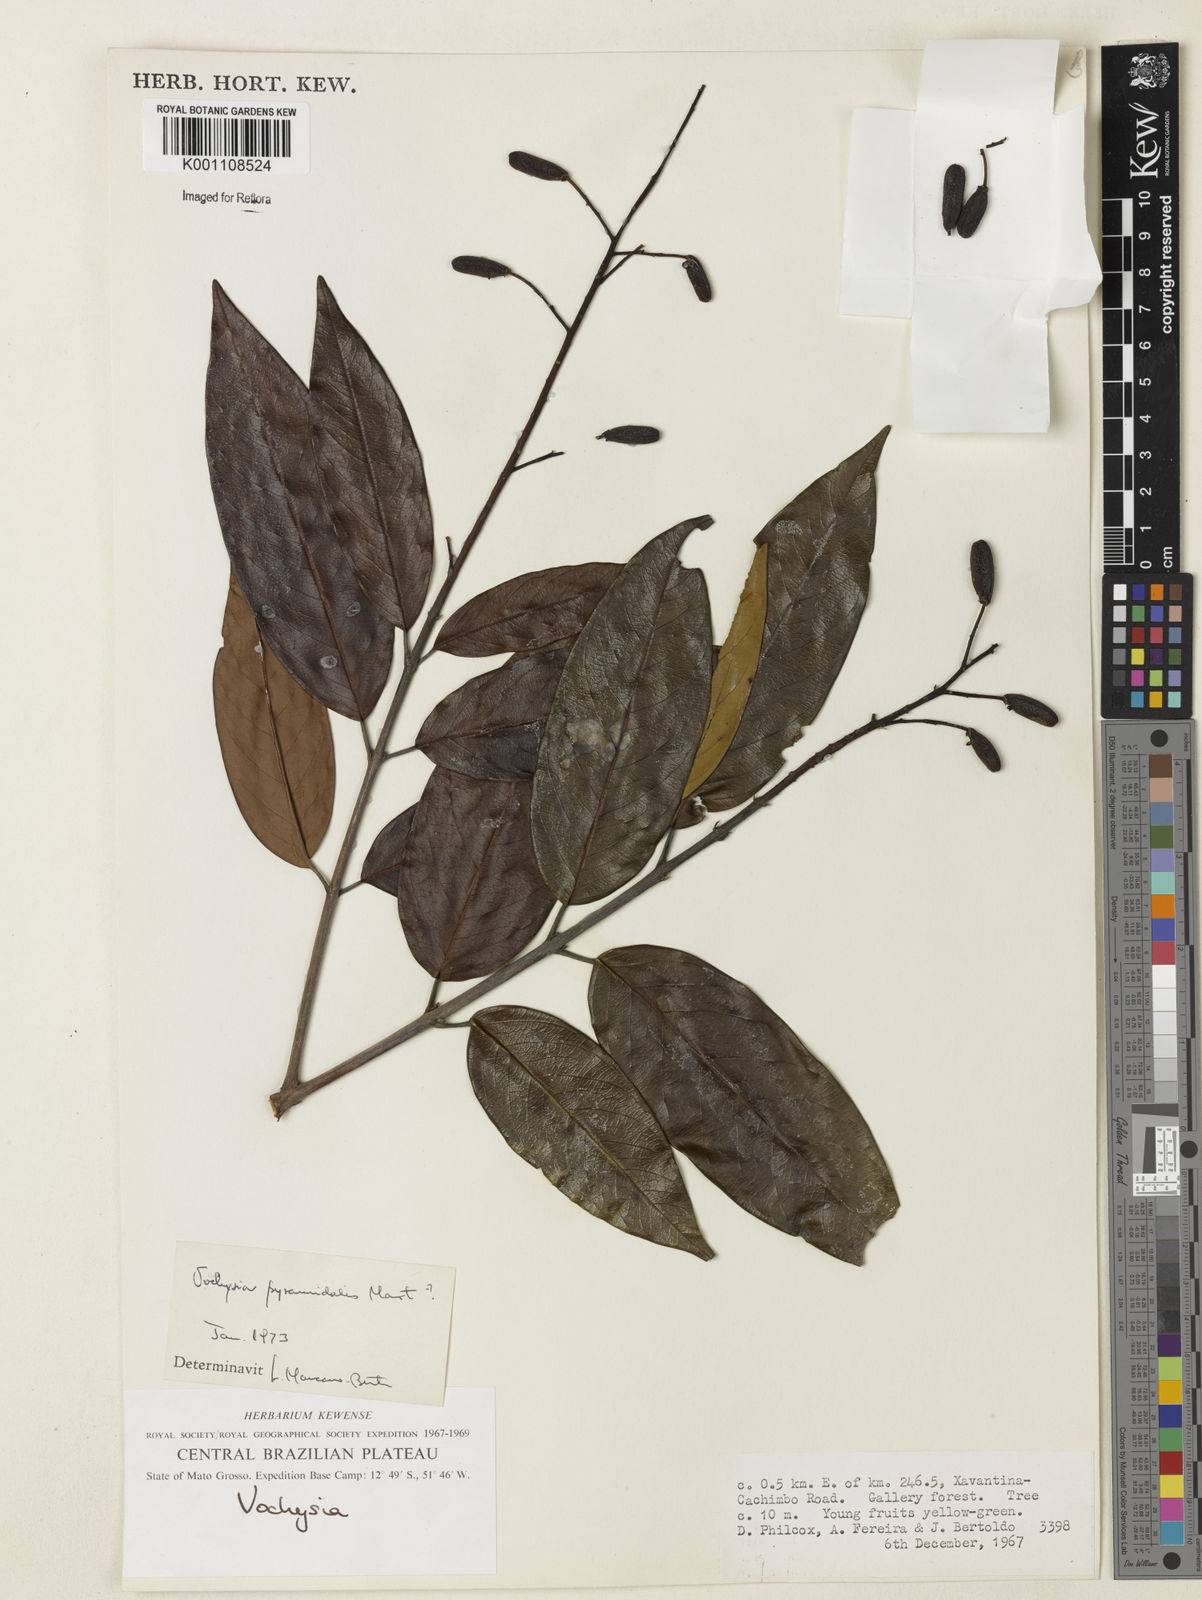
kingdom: Plantae
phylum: Tracheophyta
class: Magnoliopsida
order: Myrtales
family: Vochysiaceae
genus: Vochysia
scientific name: Vochysia pyramidalis
